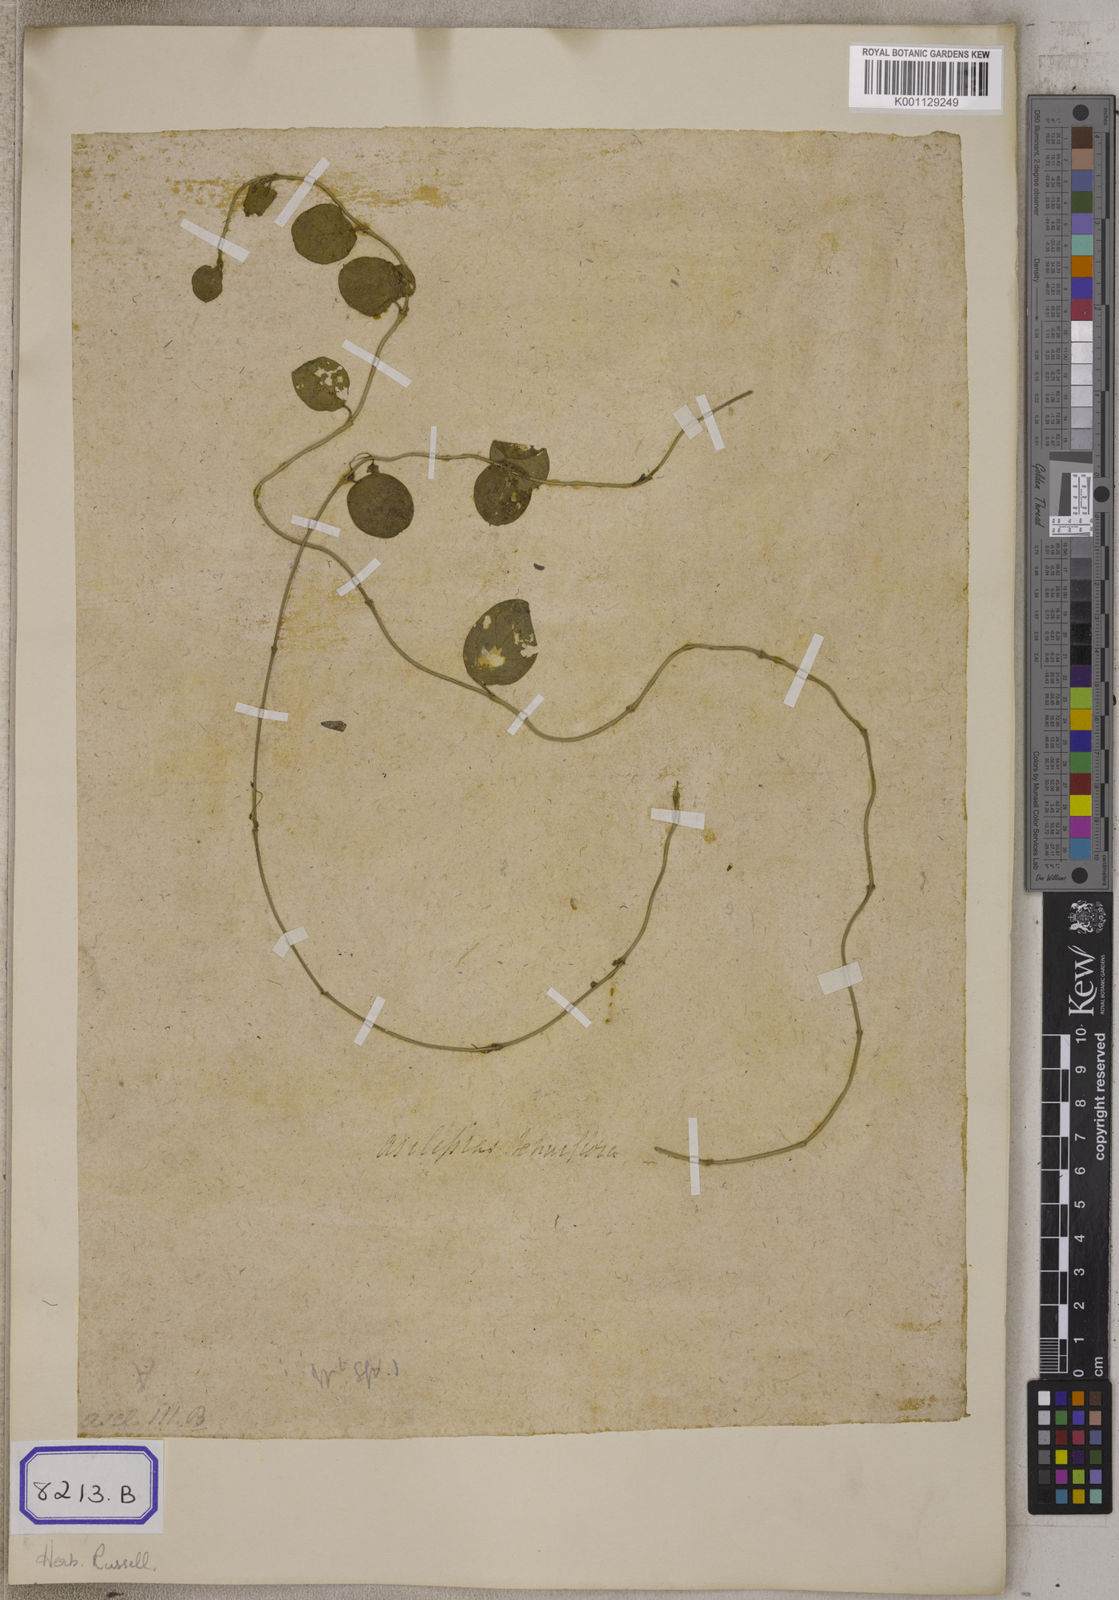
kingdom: Plantae
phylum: Tracheophyta
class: Magnoliopsida
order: Gentianales
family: Apocynaceae
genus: Pentatropis
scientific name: Pentatropis capensis
